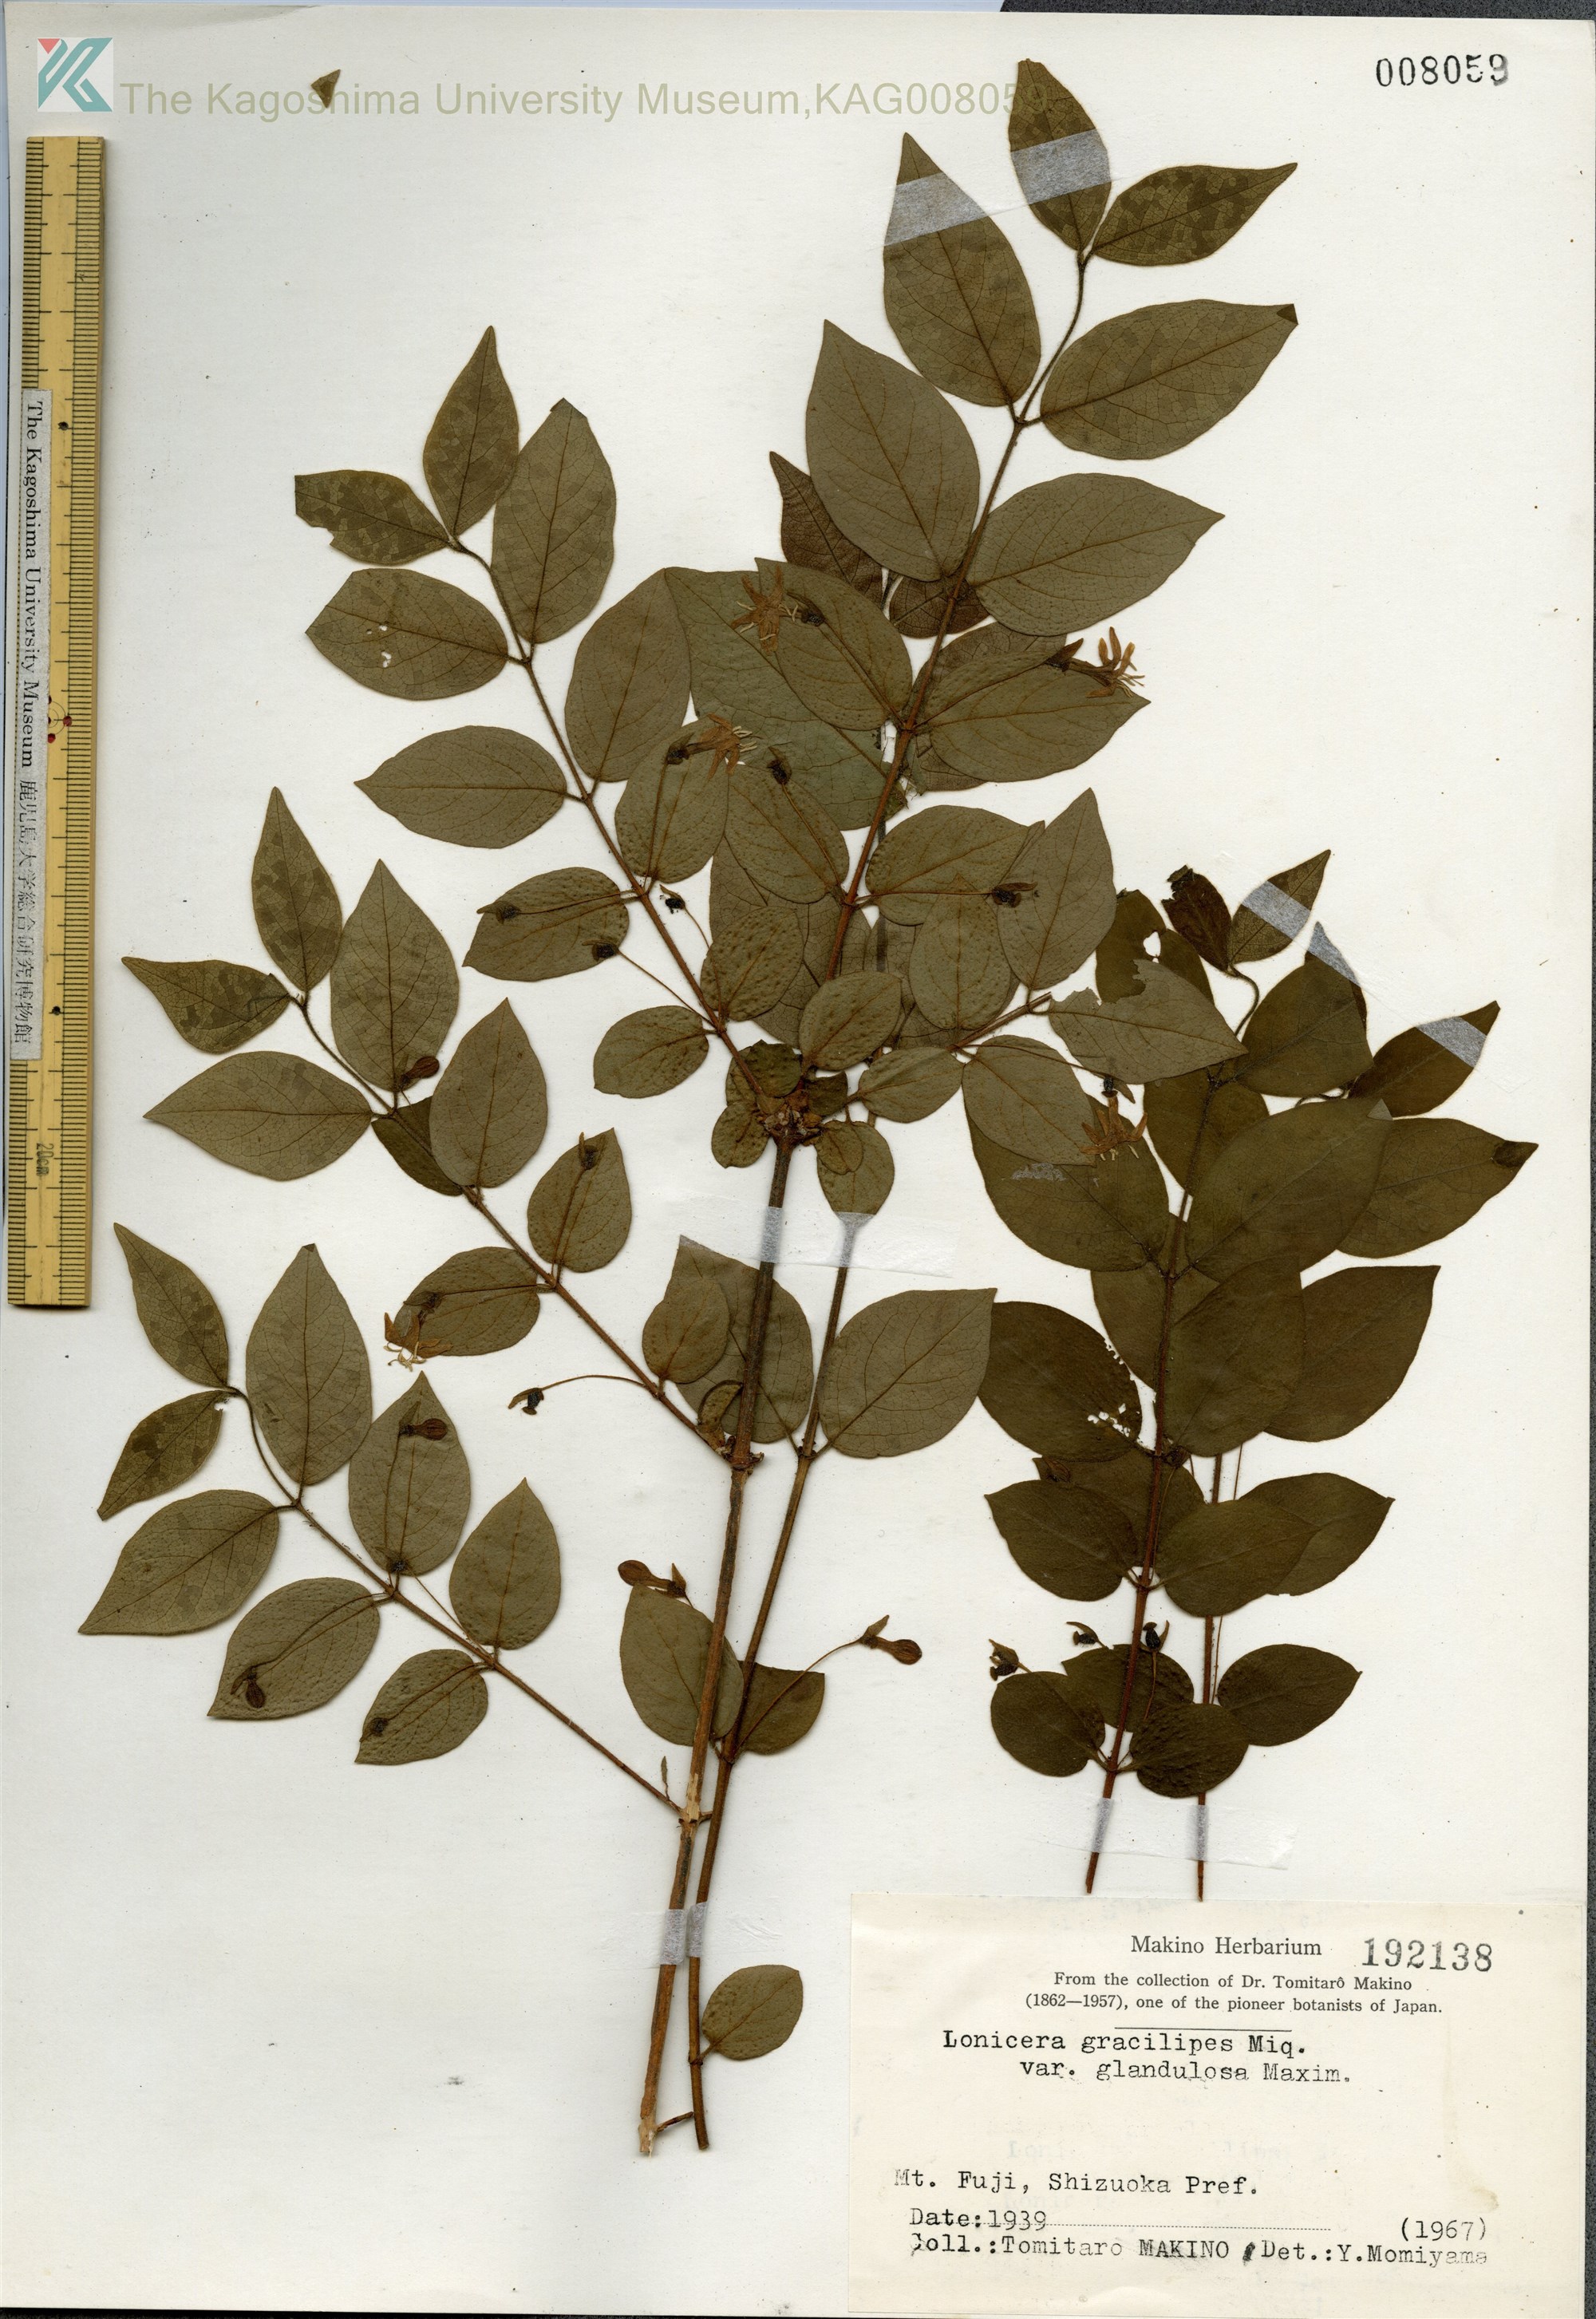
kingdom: Plantae
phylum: Tracheophyta
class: Magnoliopsida
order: Dipsacales
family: Caprifoliaceae
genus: Lonicera
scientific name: Lonicera gracilipes
